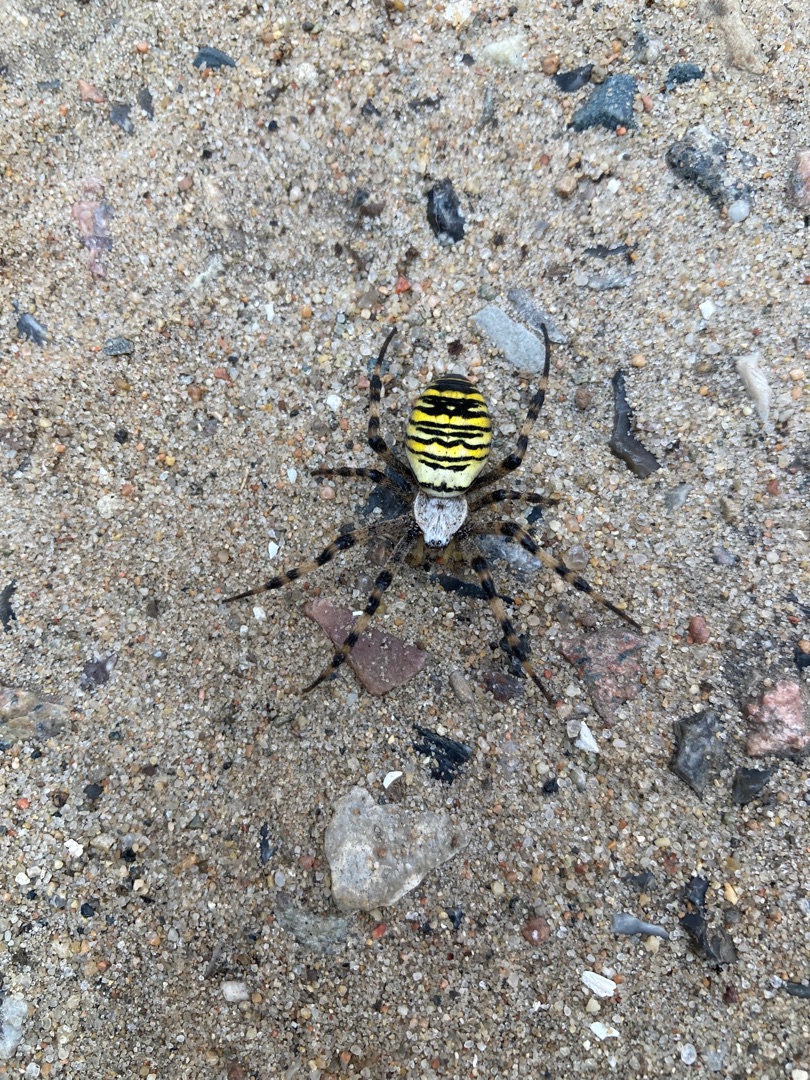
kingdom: Animalia
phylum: Arthropoda
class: Arachnida
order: Araneae
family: Araneidae
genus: Argiope
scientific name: Argiope bruennichi
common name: Hvepseedderkop
